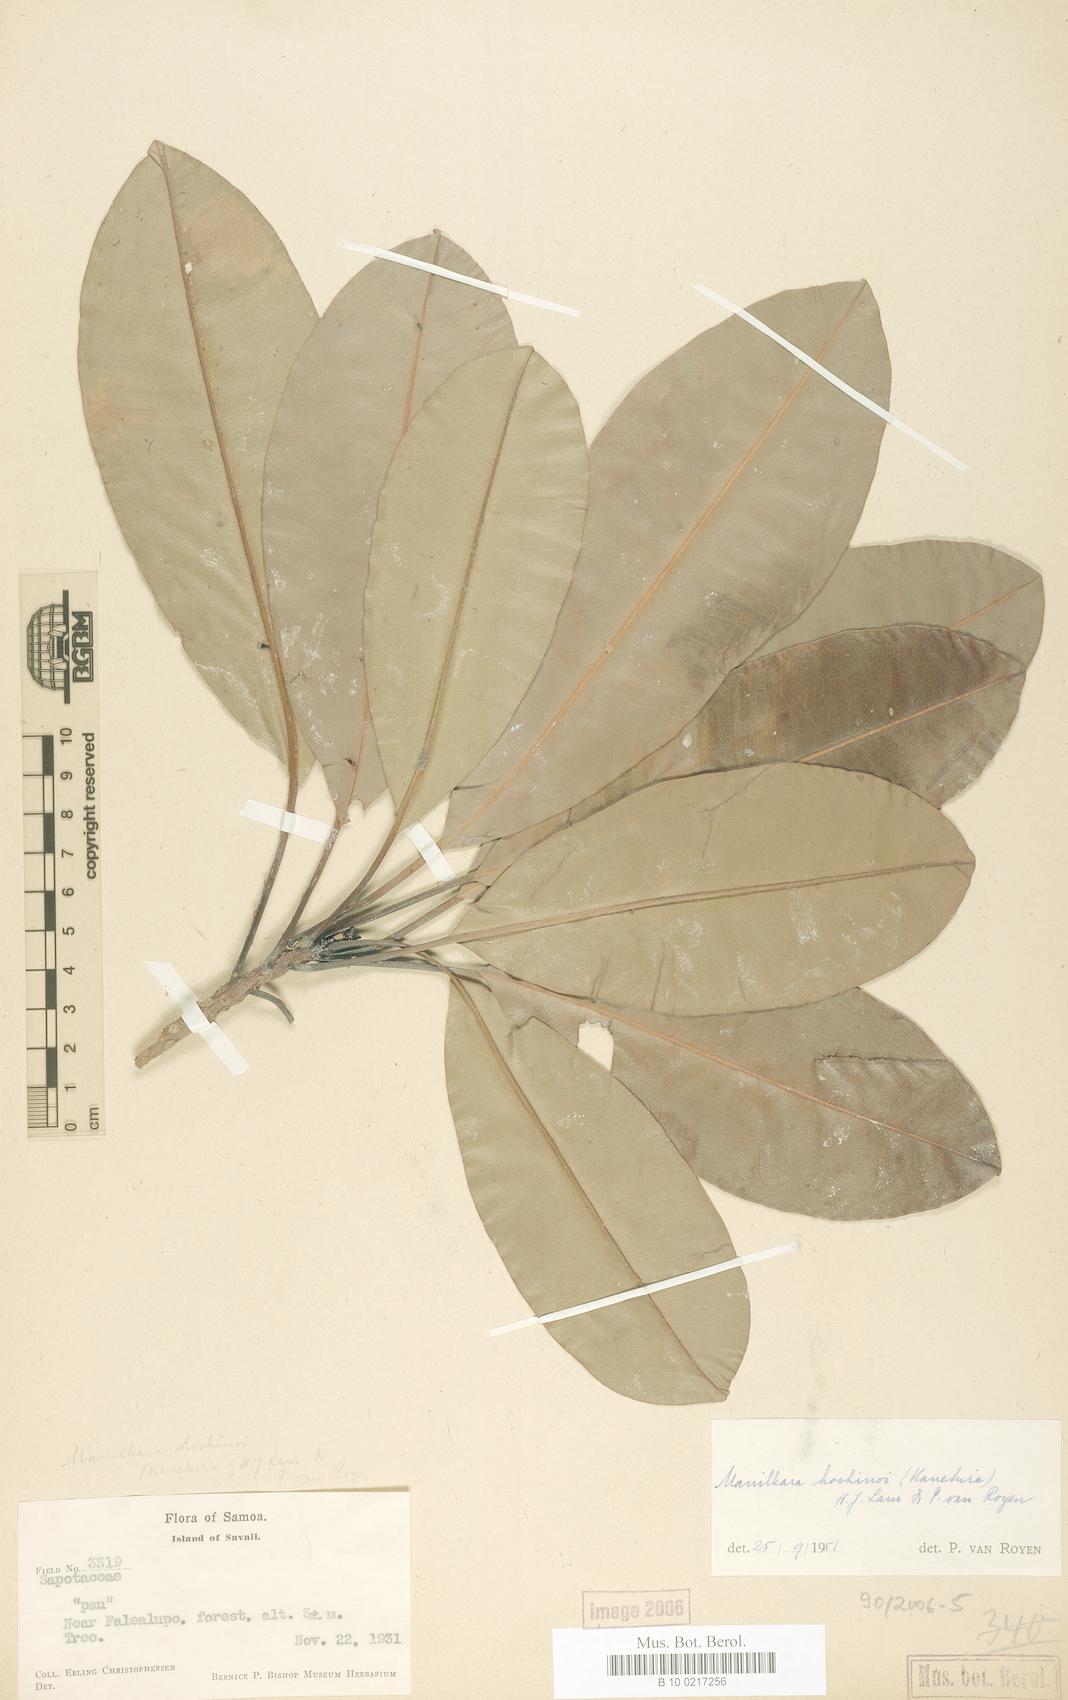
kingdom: Plantae
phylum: Tracheophyta
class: Magnoliopsida
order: Ericales
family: Sapotaceae
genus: Manilkara
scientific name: Manilkara samoensis
